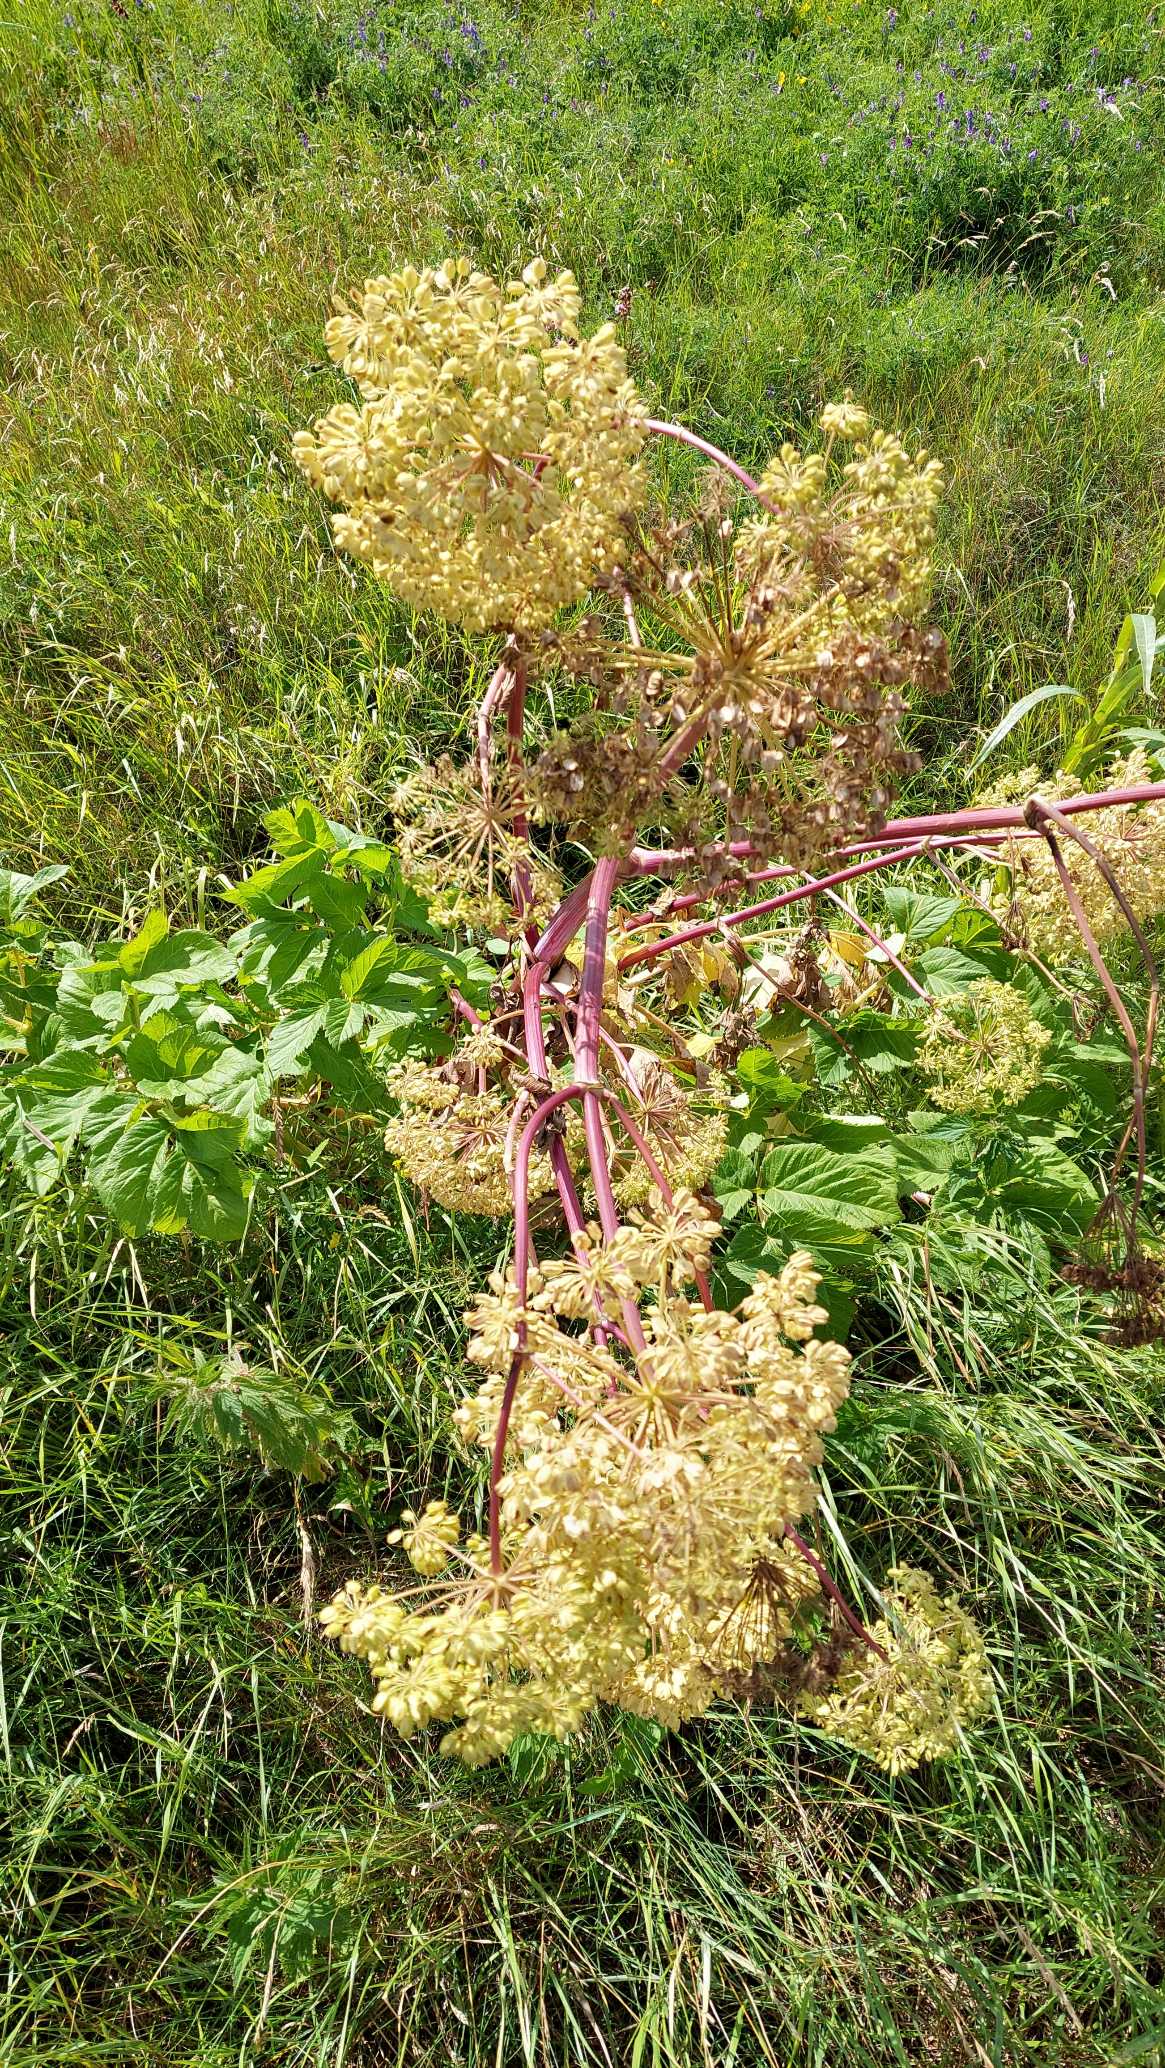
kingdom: Plantae
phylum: Tracheophyta
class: Magnoliopsida
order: Apiales
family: Apiaceae
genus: Angelica
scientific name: Angelica archangelica
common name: Kvan
